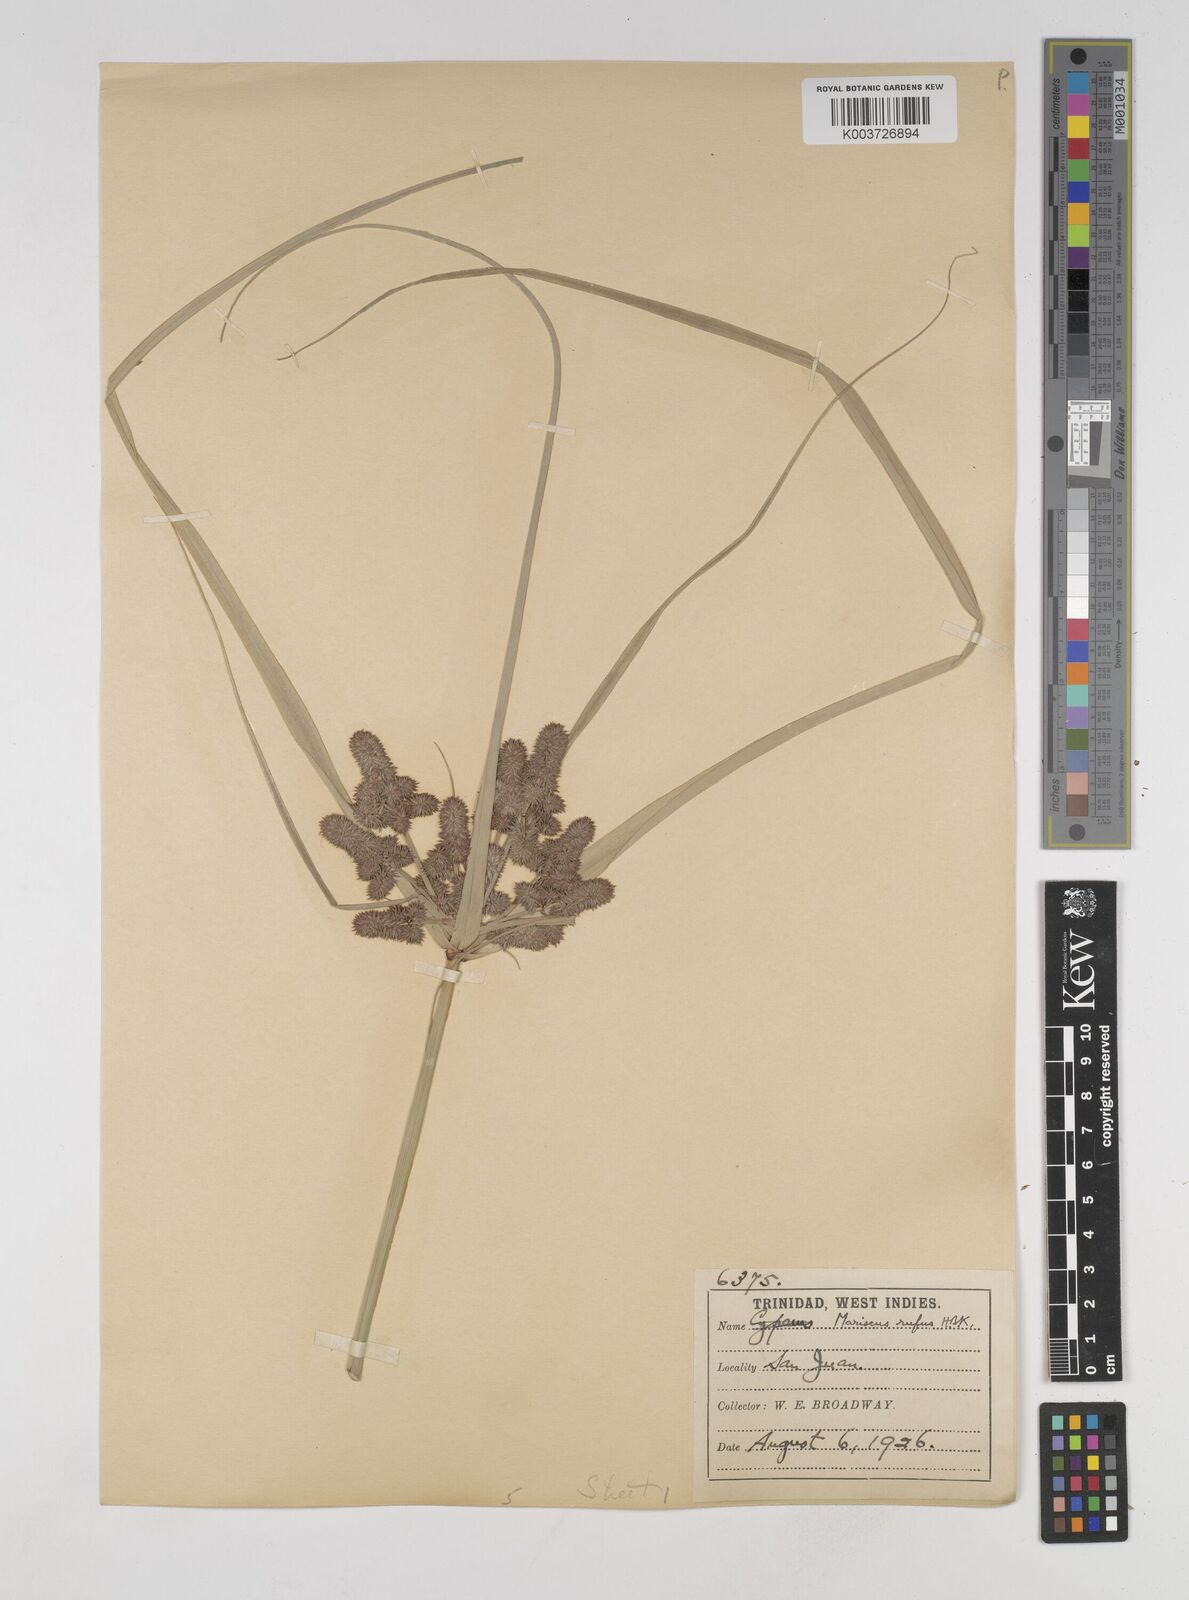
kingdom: Plantae
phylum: Tracheophyta
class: Liliopsida
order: Poales
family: Cyperaceae
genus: Cyperus
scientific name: Cyperus ligularis
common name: Swamp flat sedge
